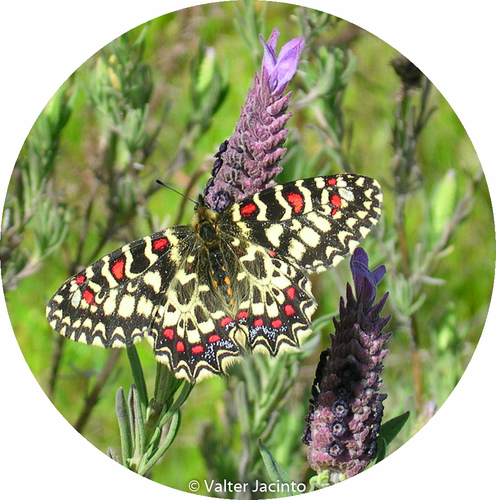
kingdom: Animalia
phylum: Arthropoda
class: Insecta
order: Lepidoptera
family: Papilionidae
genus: Zerynthia
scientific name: Zerynthia rumina
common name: Spanish festoon
